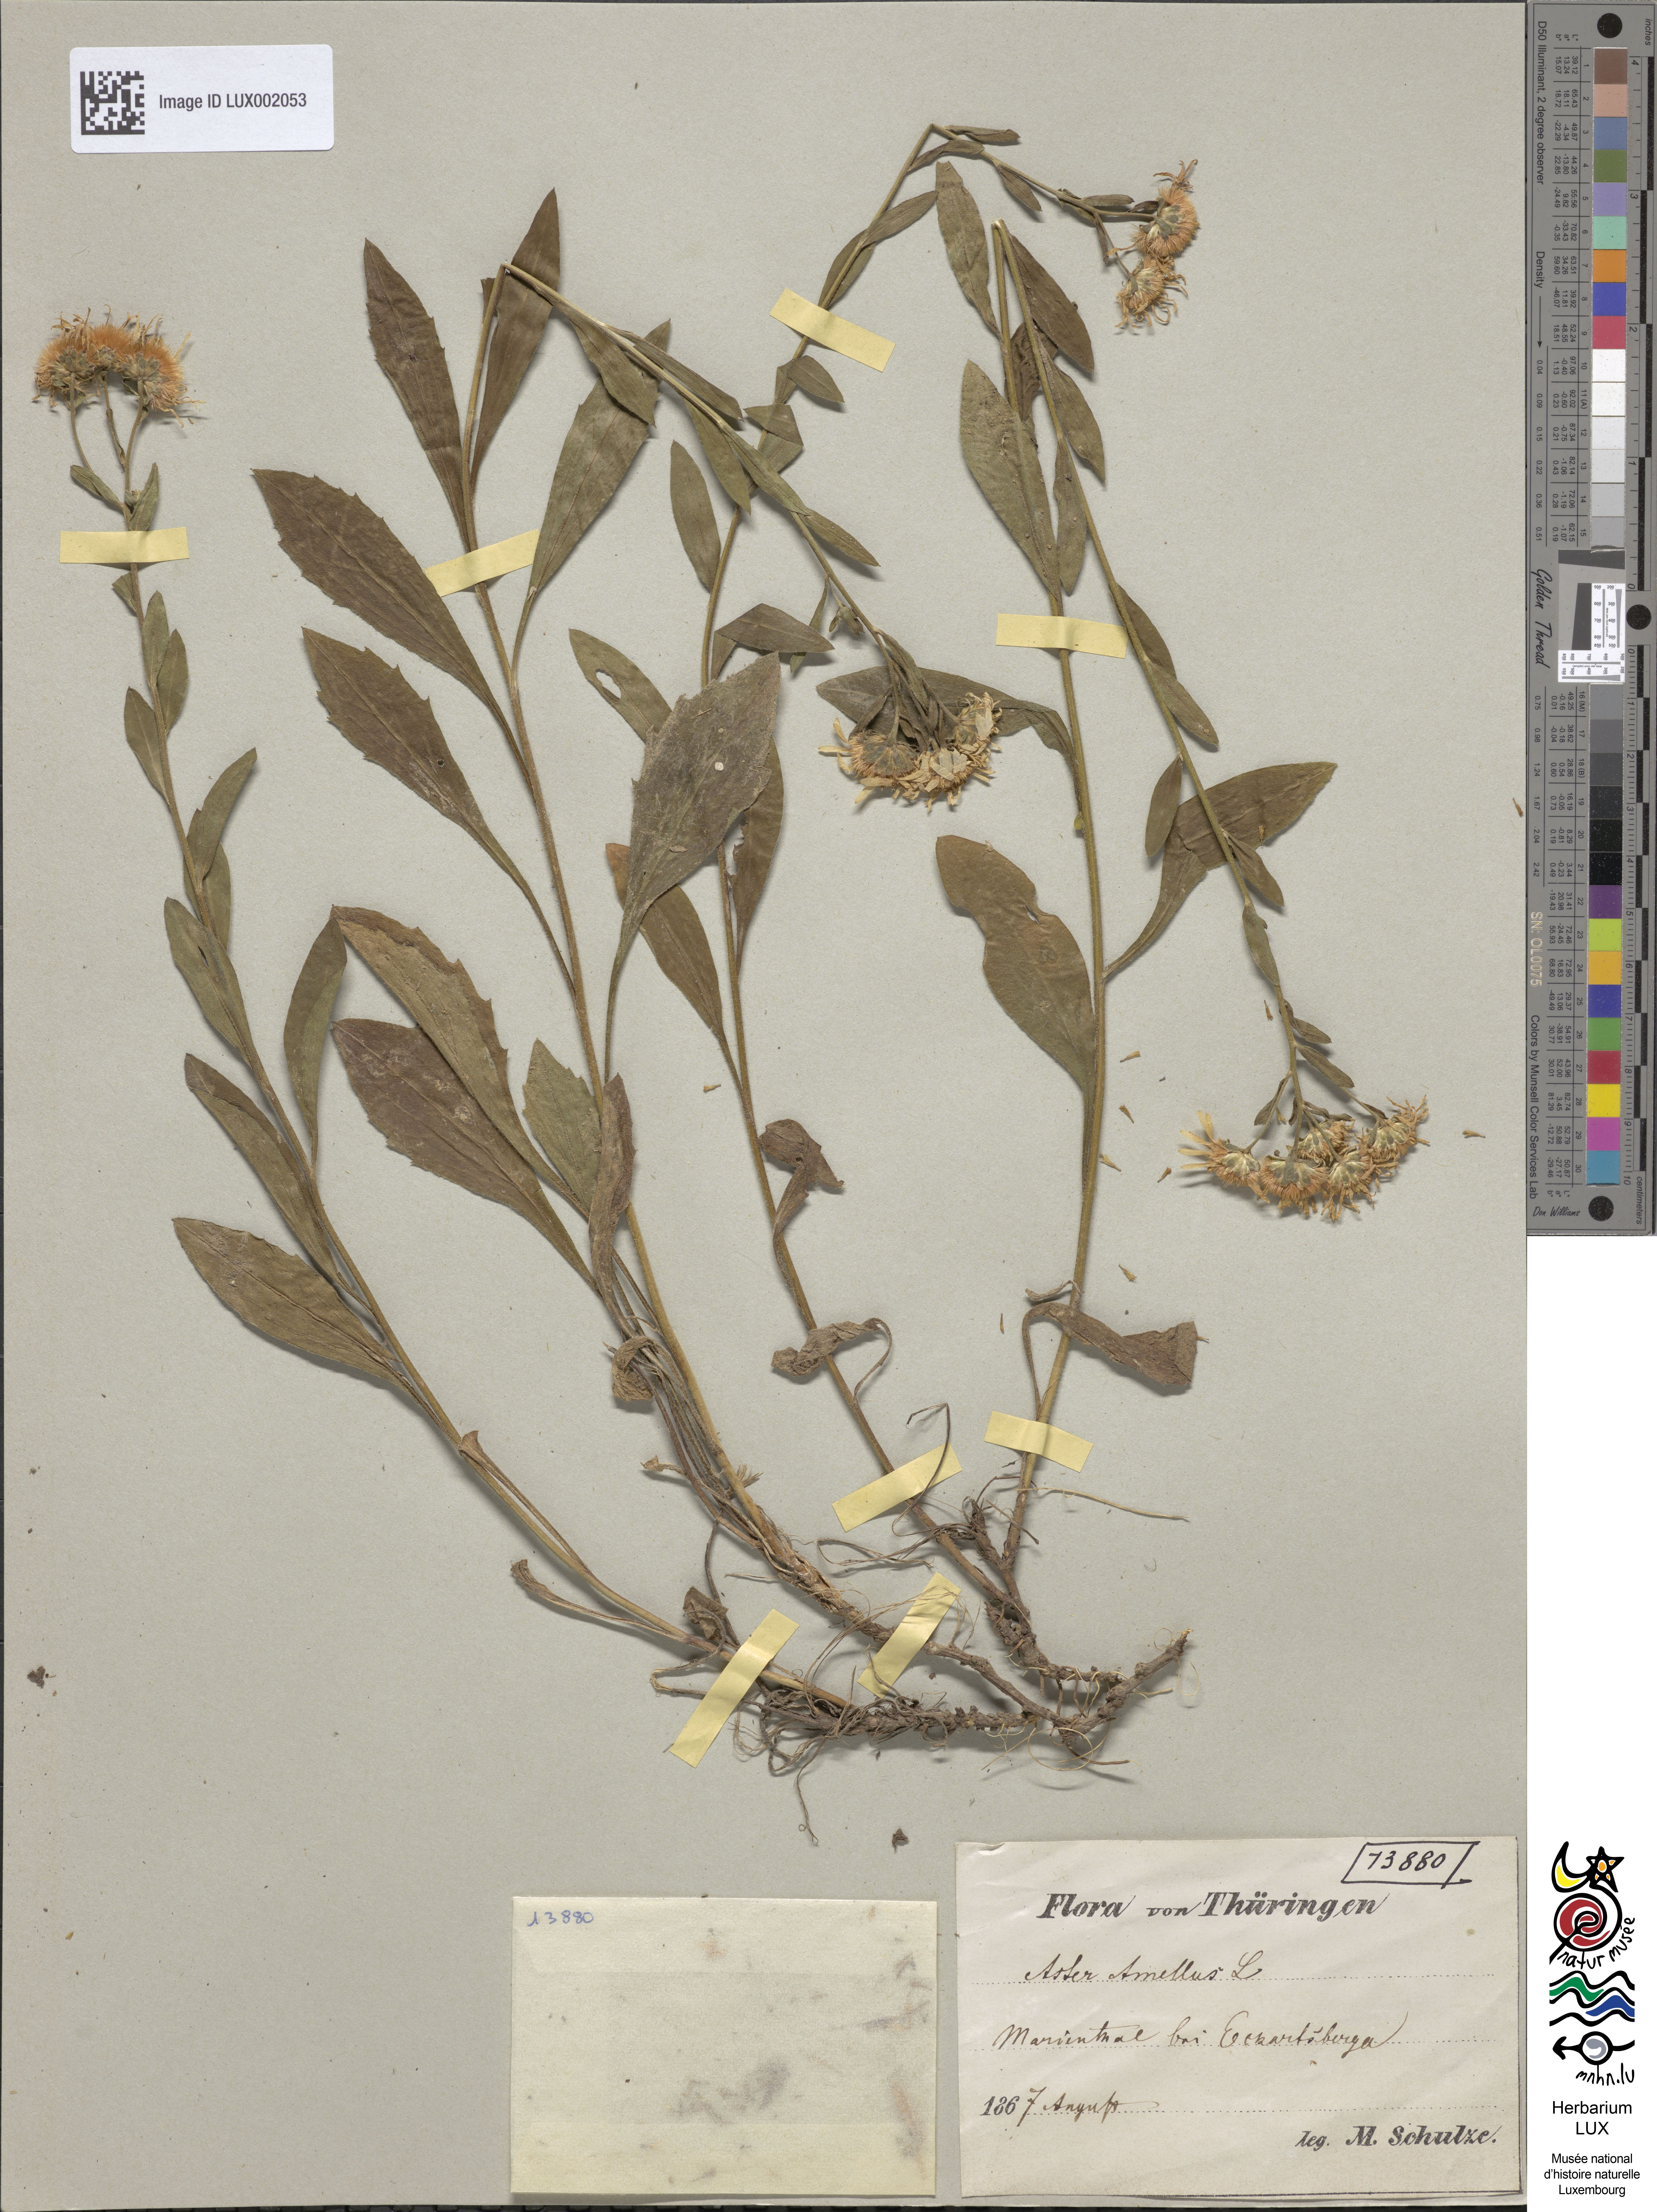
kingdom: Plantae
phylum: Tracheophyta
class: Magnoliopsida
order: Asterales
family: Asteraceae
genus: Aster
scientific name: Aster amellus
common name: European michaelmas daisy
